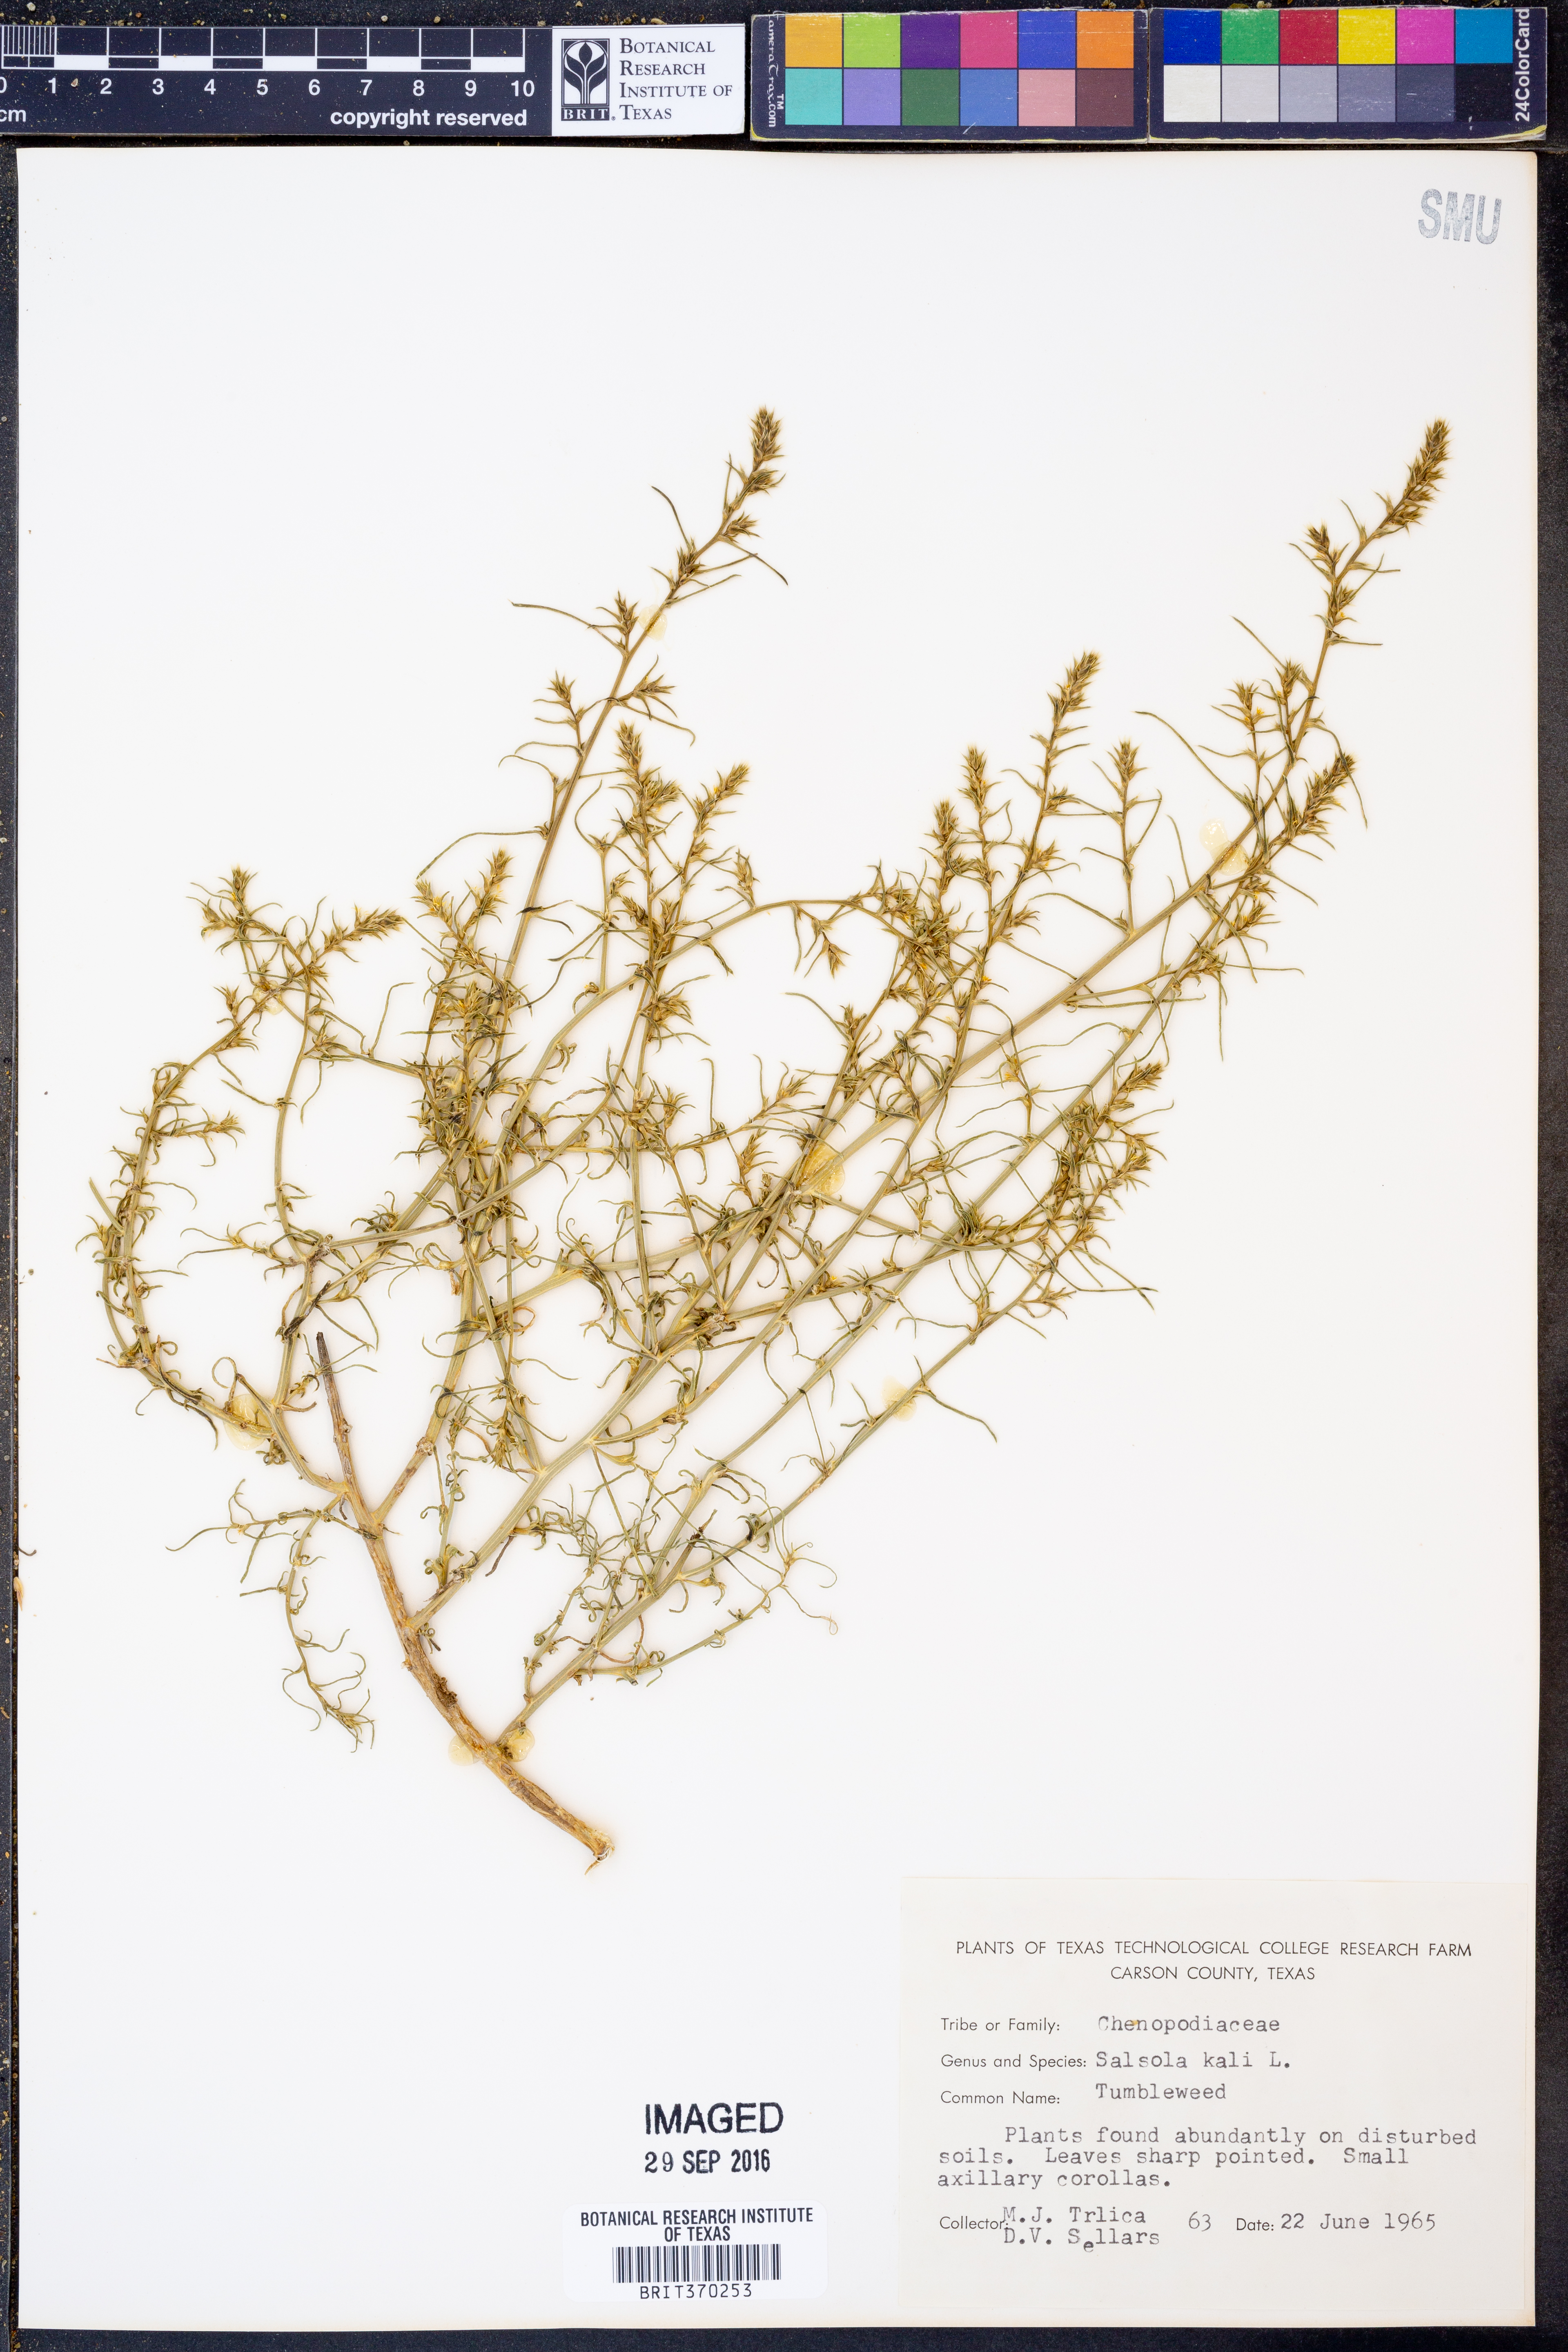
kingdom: Plantae
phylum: Tracheophyta
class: Magnoliopsida
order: Caryophyllales
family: Amaranthaceae
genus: Salsola
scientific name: Salsola tragus
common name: Prickly russian thistle
